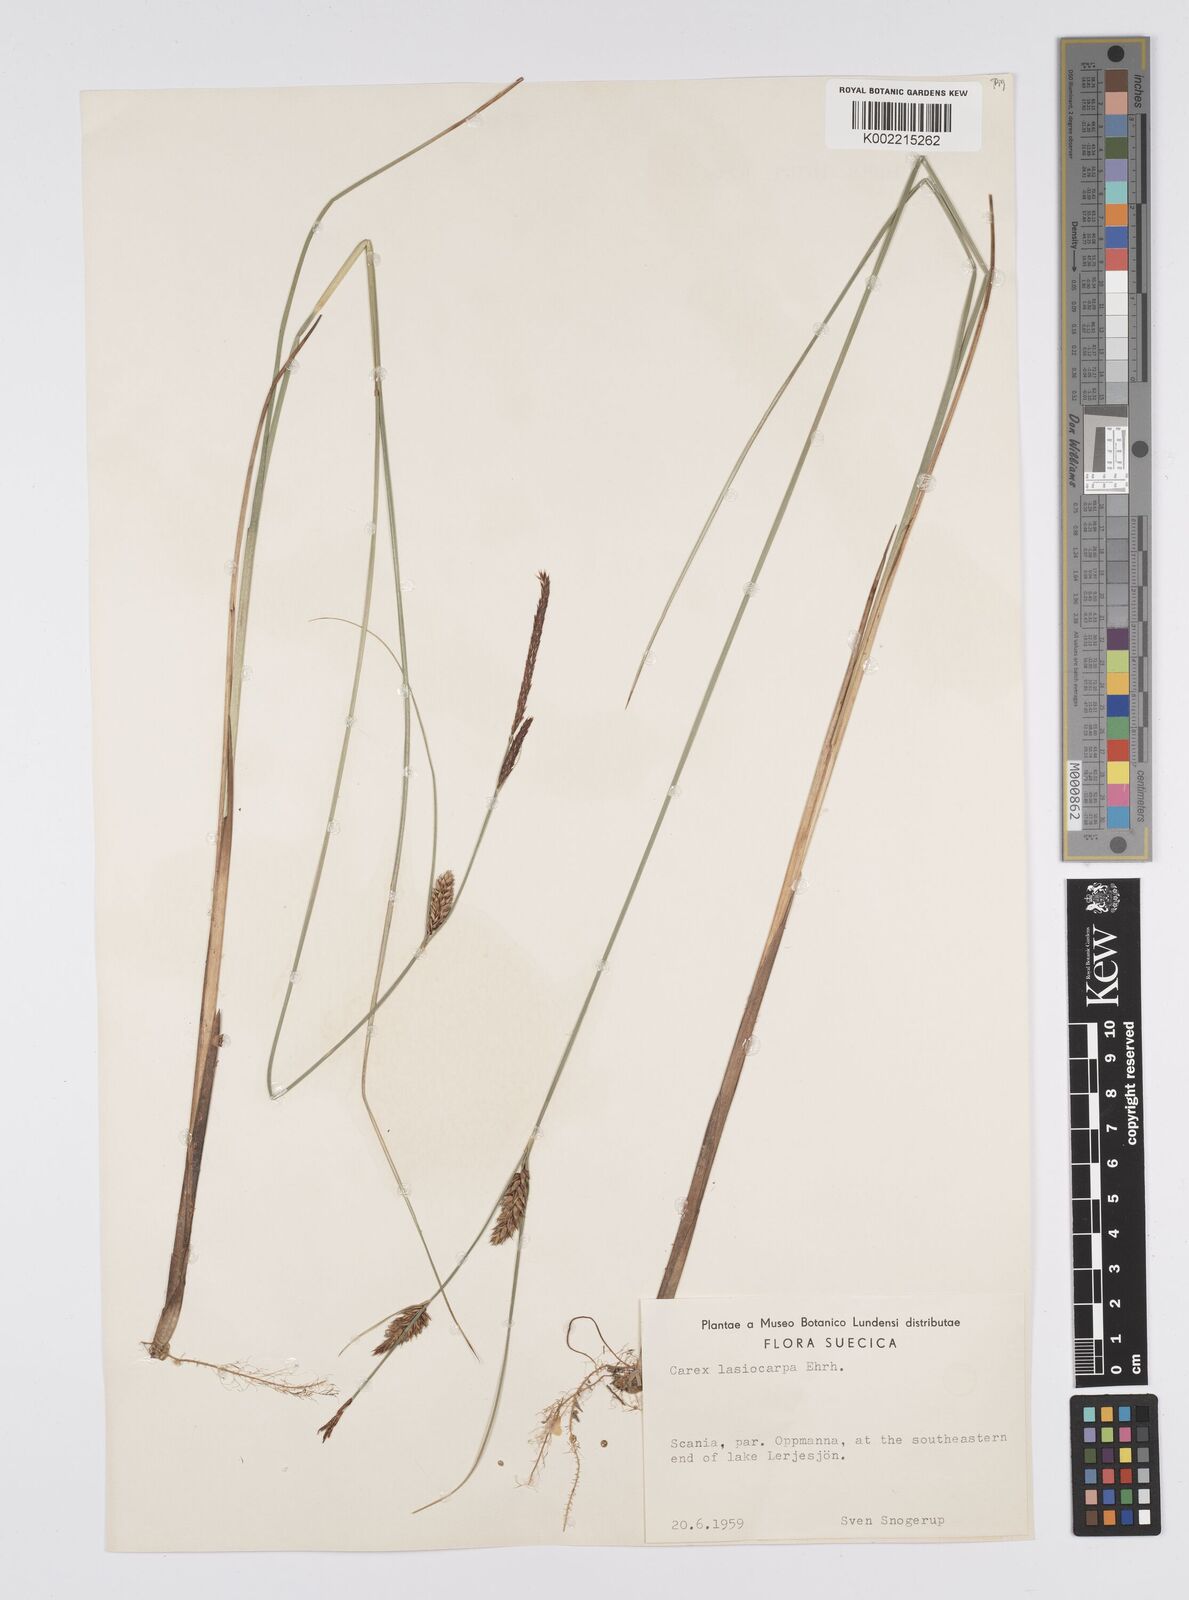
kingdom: Plantae
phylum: Tracheophyta
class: Liliopsida
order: Poales
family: Cyperaceae
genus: Carex
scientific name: Carex lasiocarpa
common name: Slender sedge
